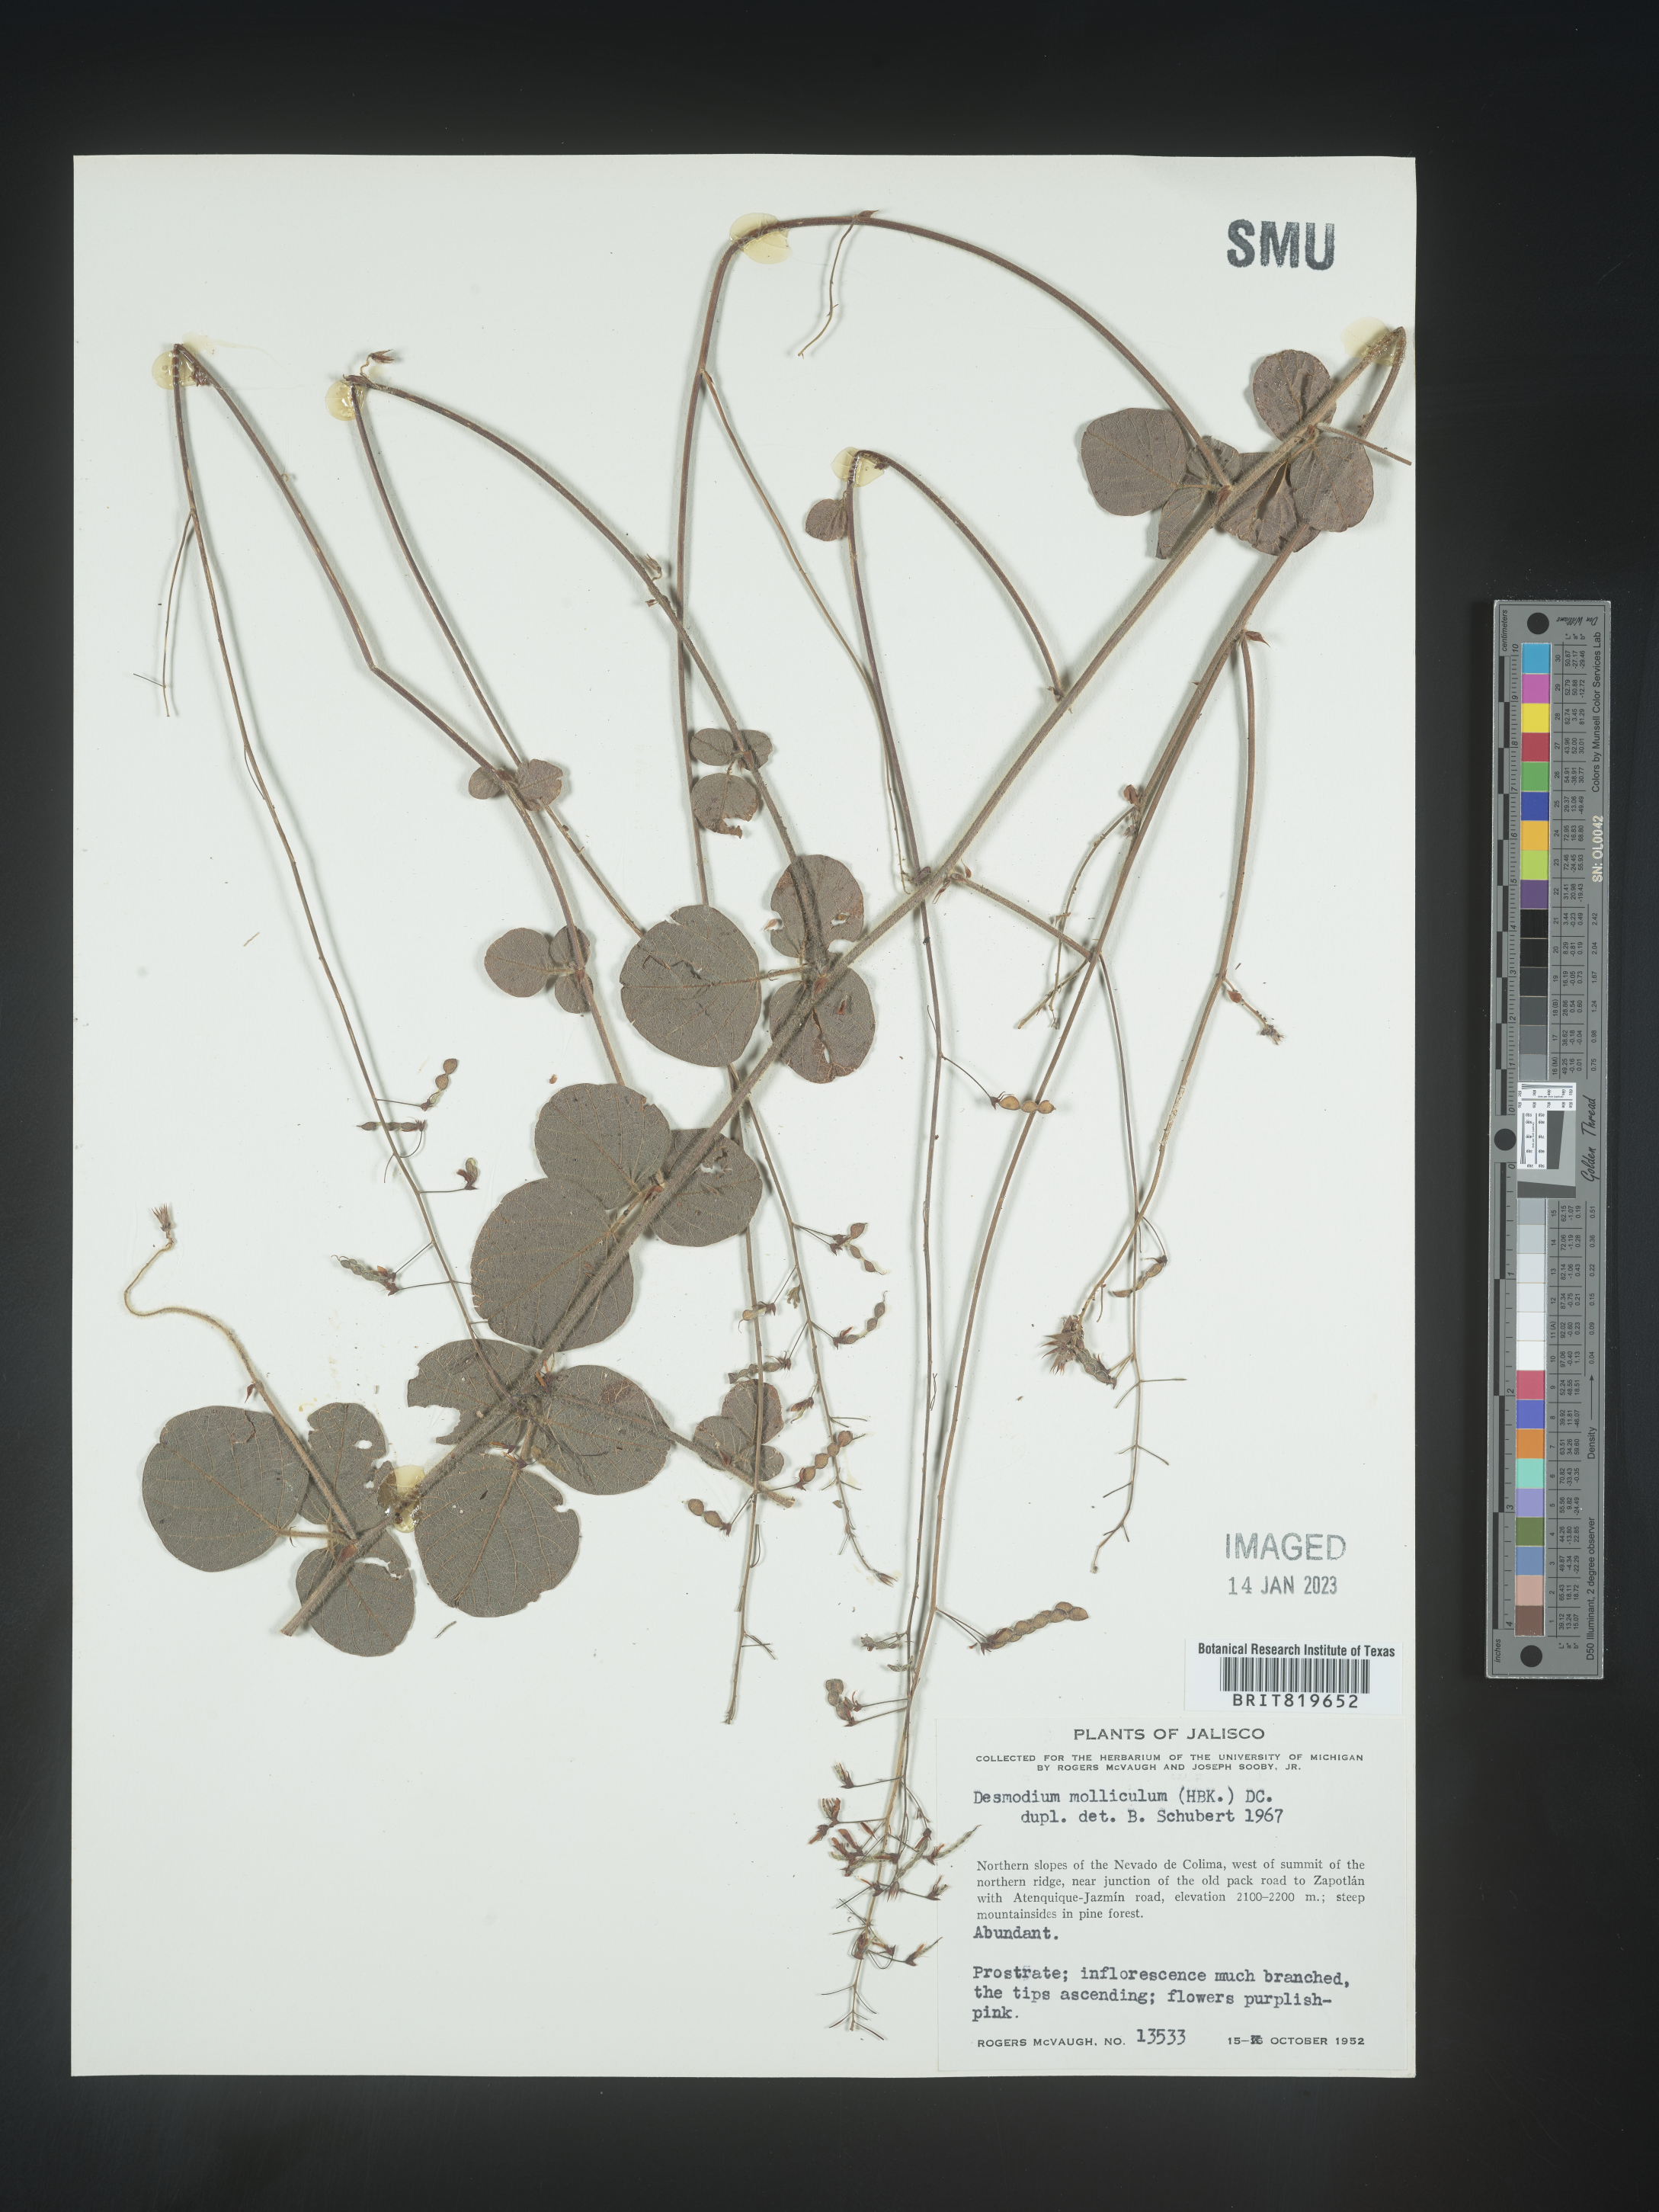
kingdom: Plantae
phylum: Tracheophyta
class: Magnoliopsida
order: Fabales
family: Fabaceae
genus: Desmodium
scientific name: Desmodium
